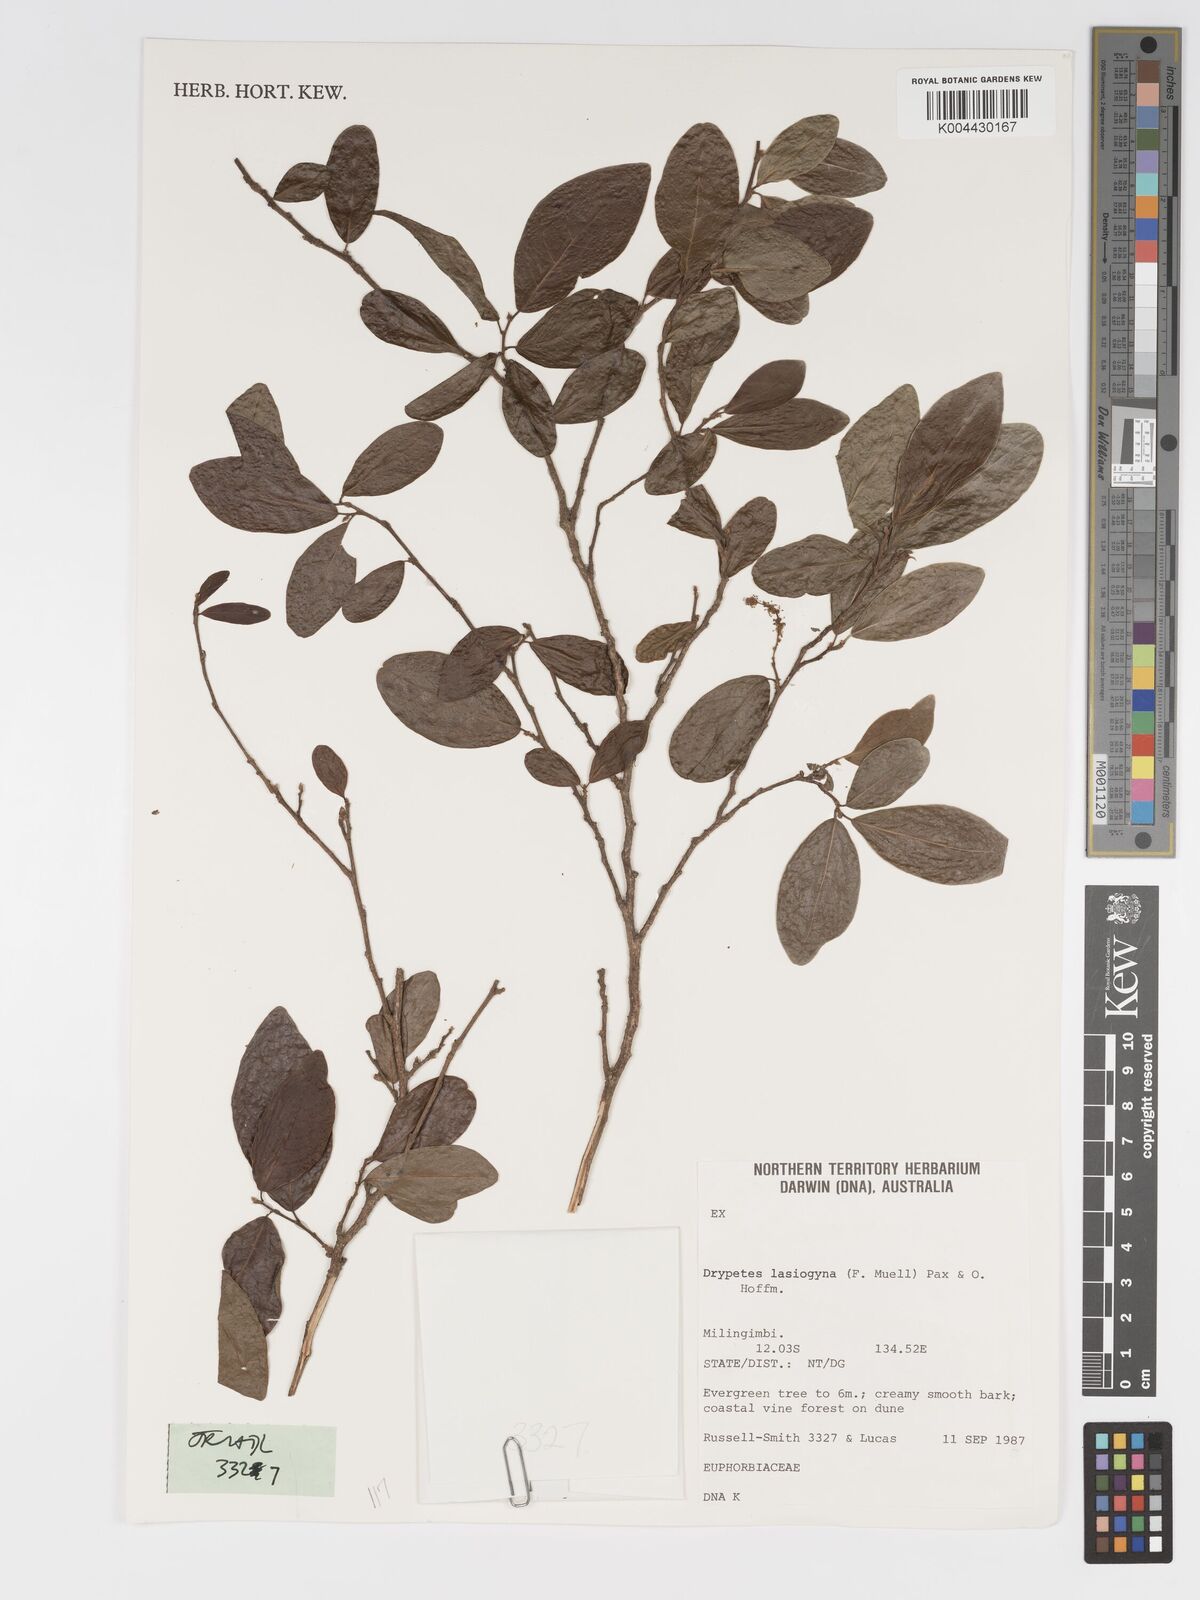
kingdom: Plantae
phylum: Tracheophyta
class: Magnoliopsida
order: Malpighiales
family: Putranjivaceae
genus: Drypetes
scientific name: Drypetes deplanchei
